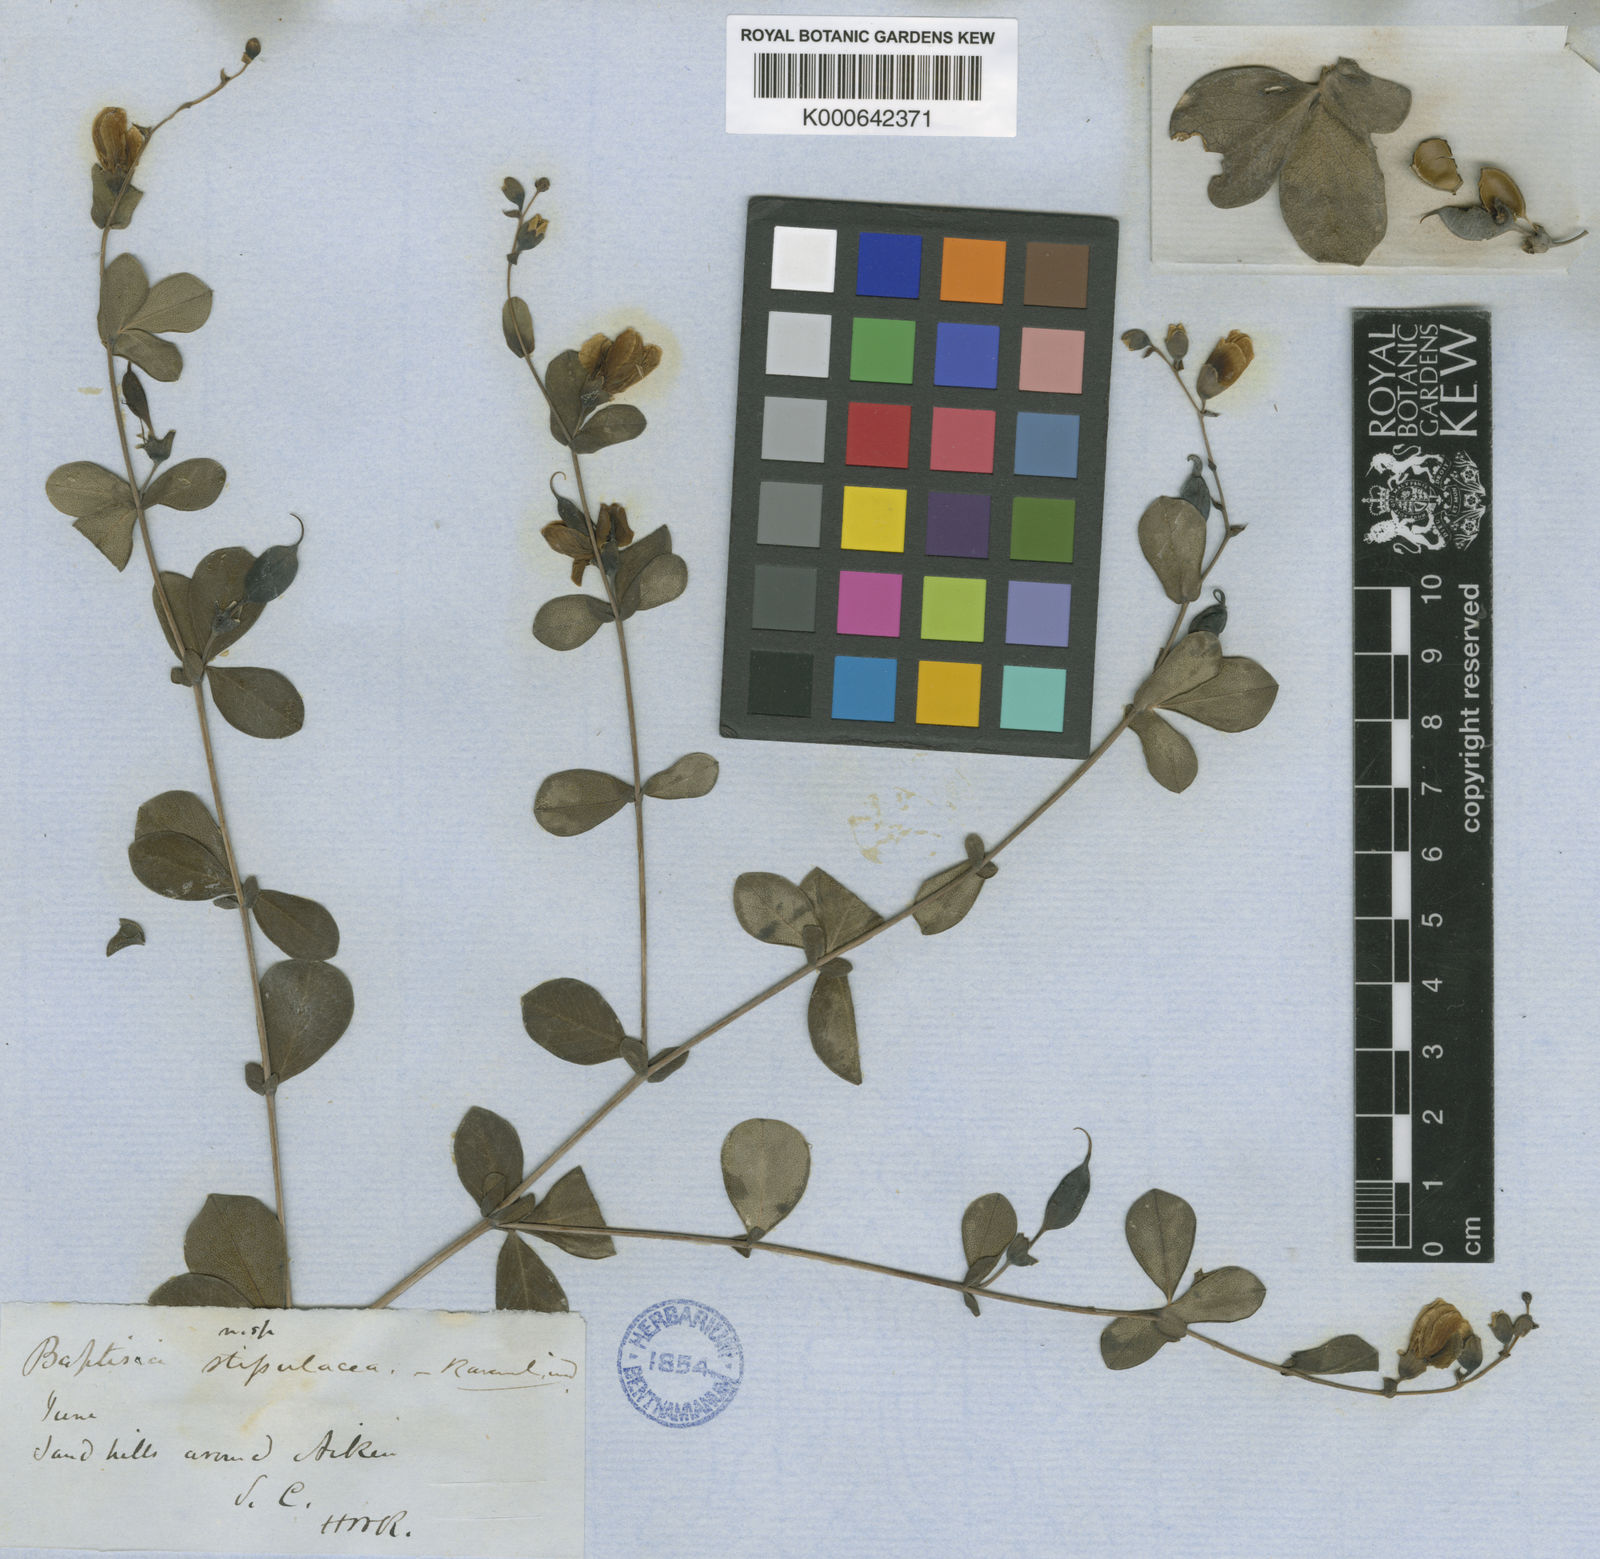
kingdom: Plantae
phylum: Tracheophyta
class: Magnoliopsida
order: Fabales
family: Fabaceae
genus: Baptisia
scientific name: Baptisia microphylla
